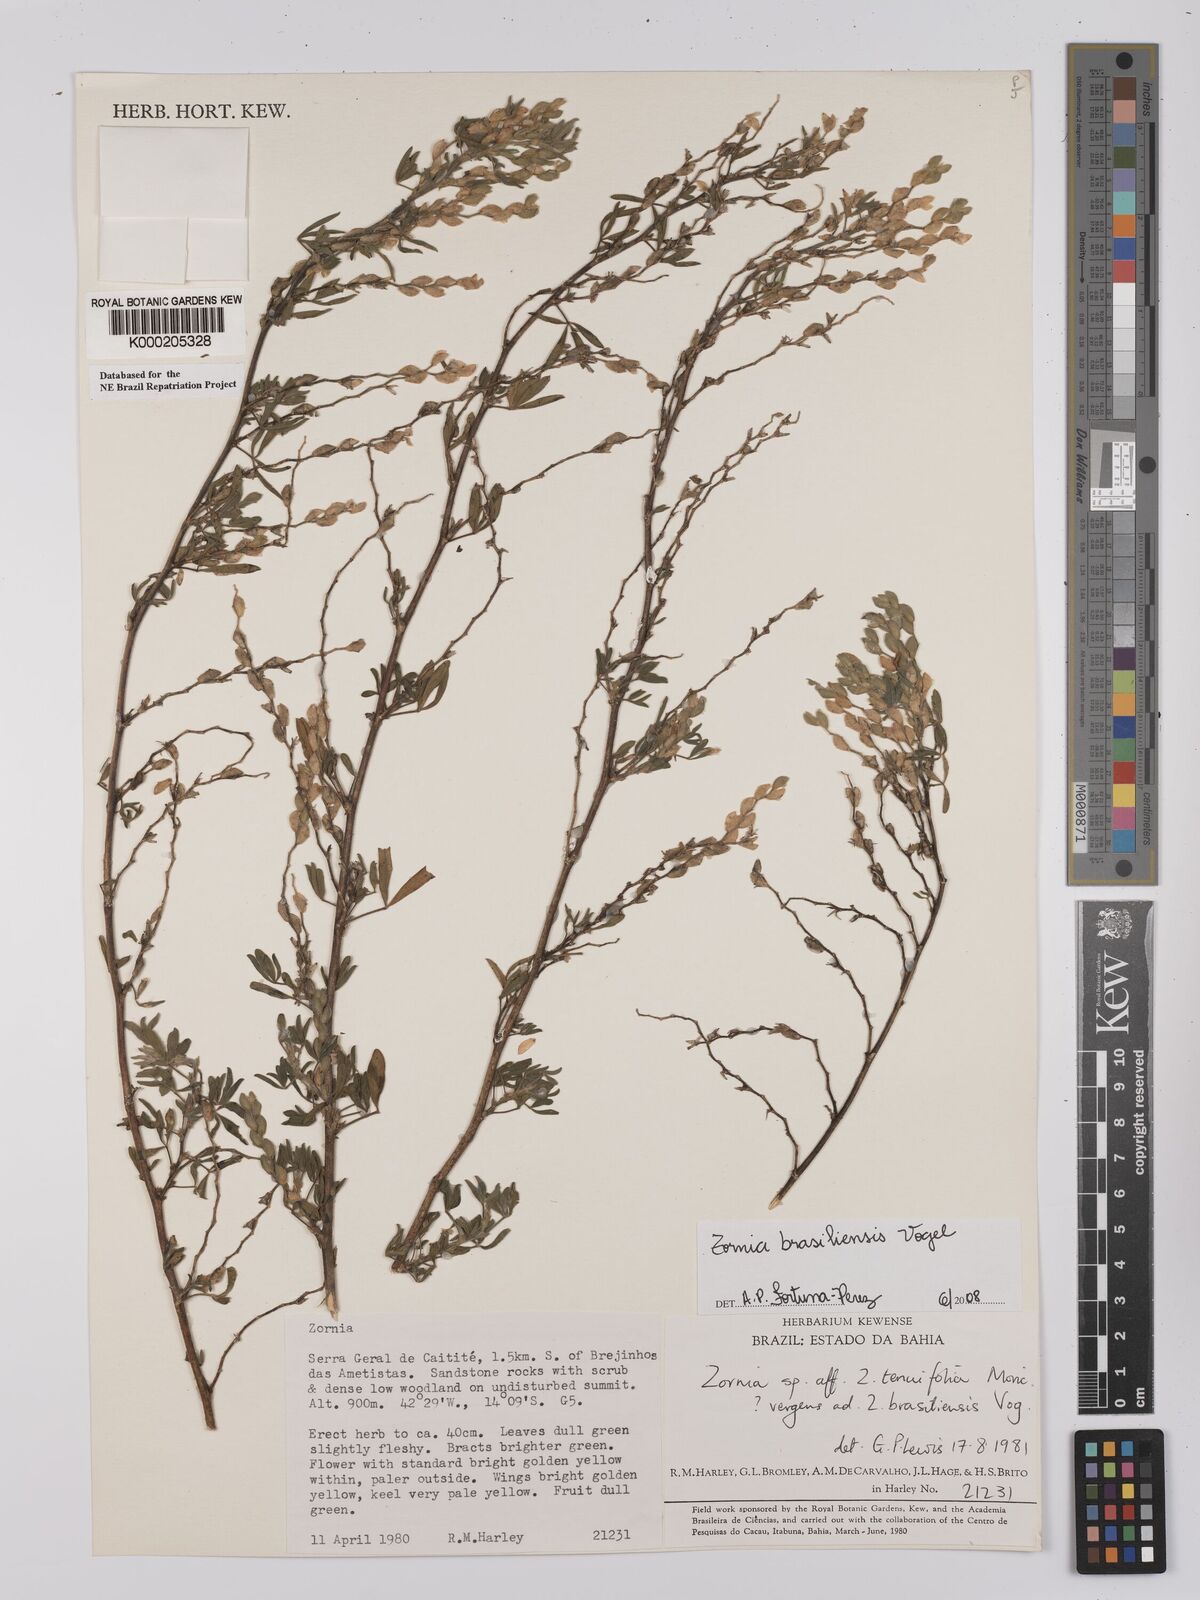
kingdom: Plantae
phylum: Tracheophyta
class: Magnoliopsida
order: Fabales
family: Fabaceae
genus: Zornia
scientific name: Zornia brasiliensis
